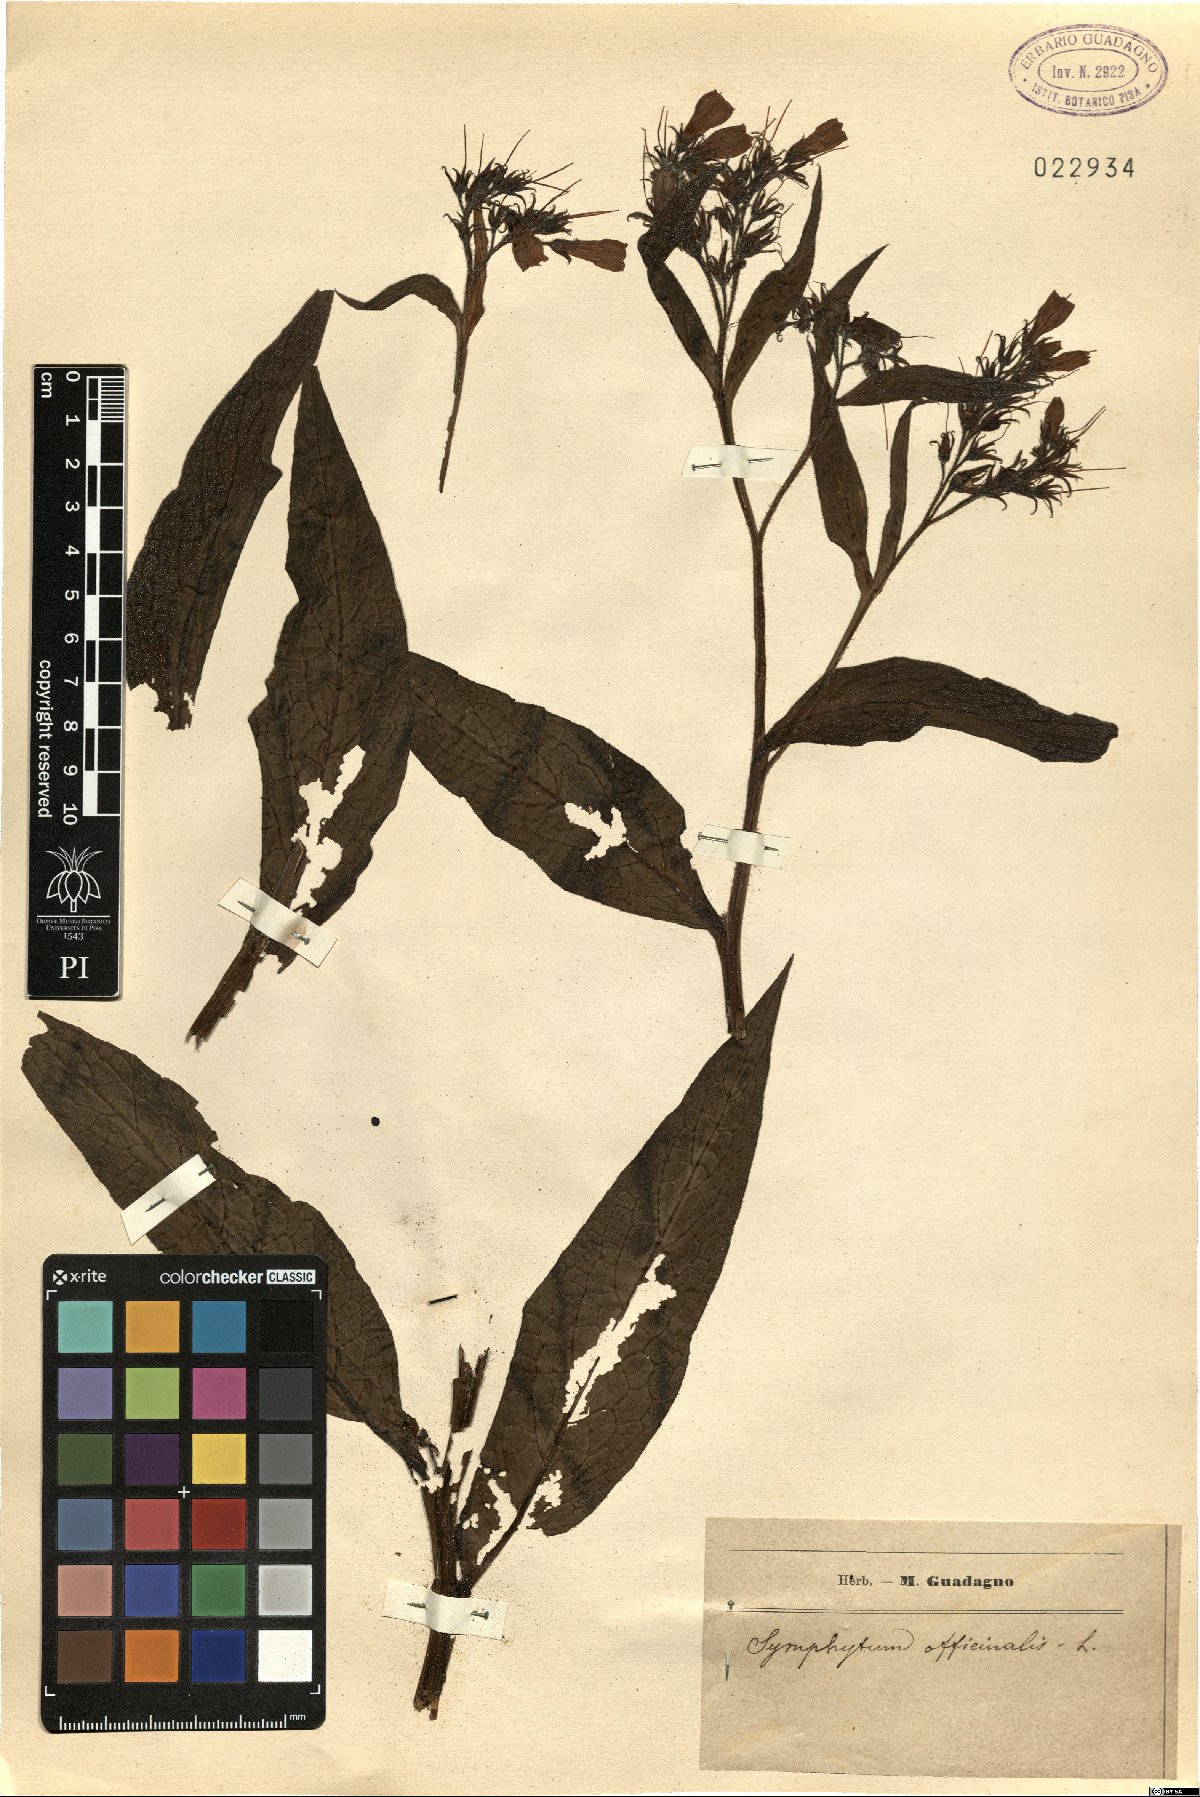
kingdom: Plantae
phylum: Tracheophyta
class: Magnoliopsida
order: Boraginales
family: Boraginaceae
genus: Symphytum
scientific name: Symphytum officinale
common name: Common comfrey
